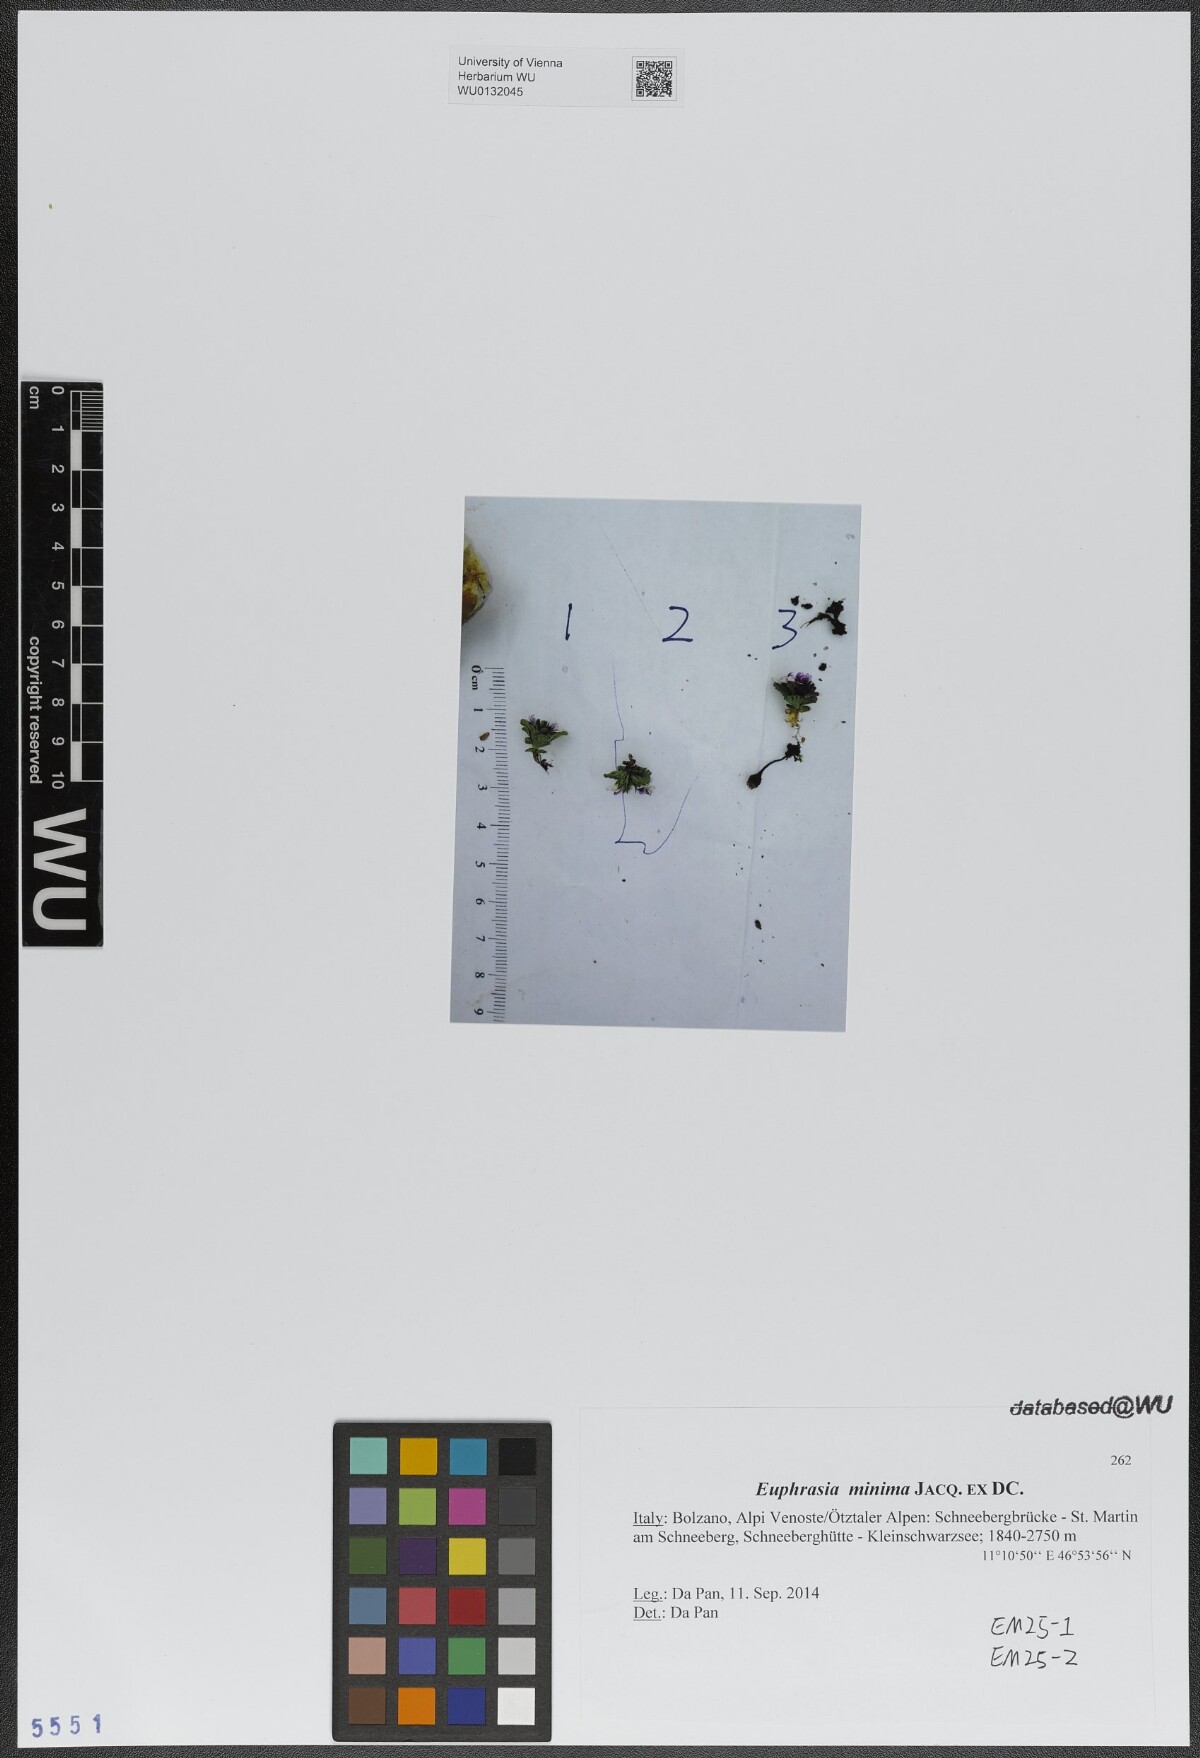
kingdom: Plantae
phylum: Tracheophyta
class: Magnoliopsida
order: Lamiales
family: Orobanchaceae
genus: Euphrasia
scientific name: Euphrasia minima
